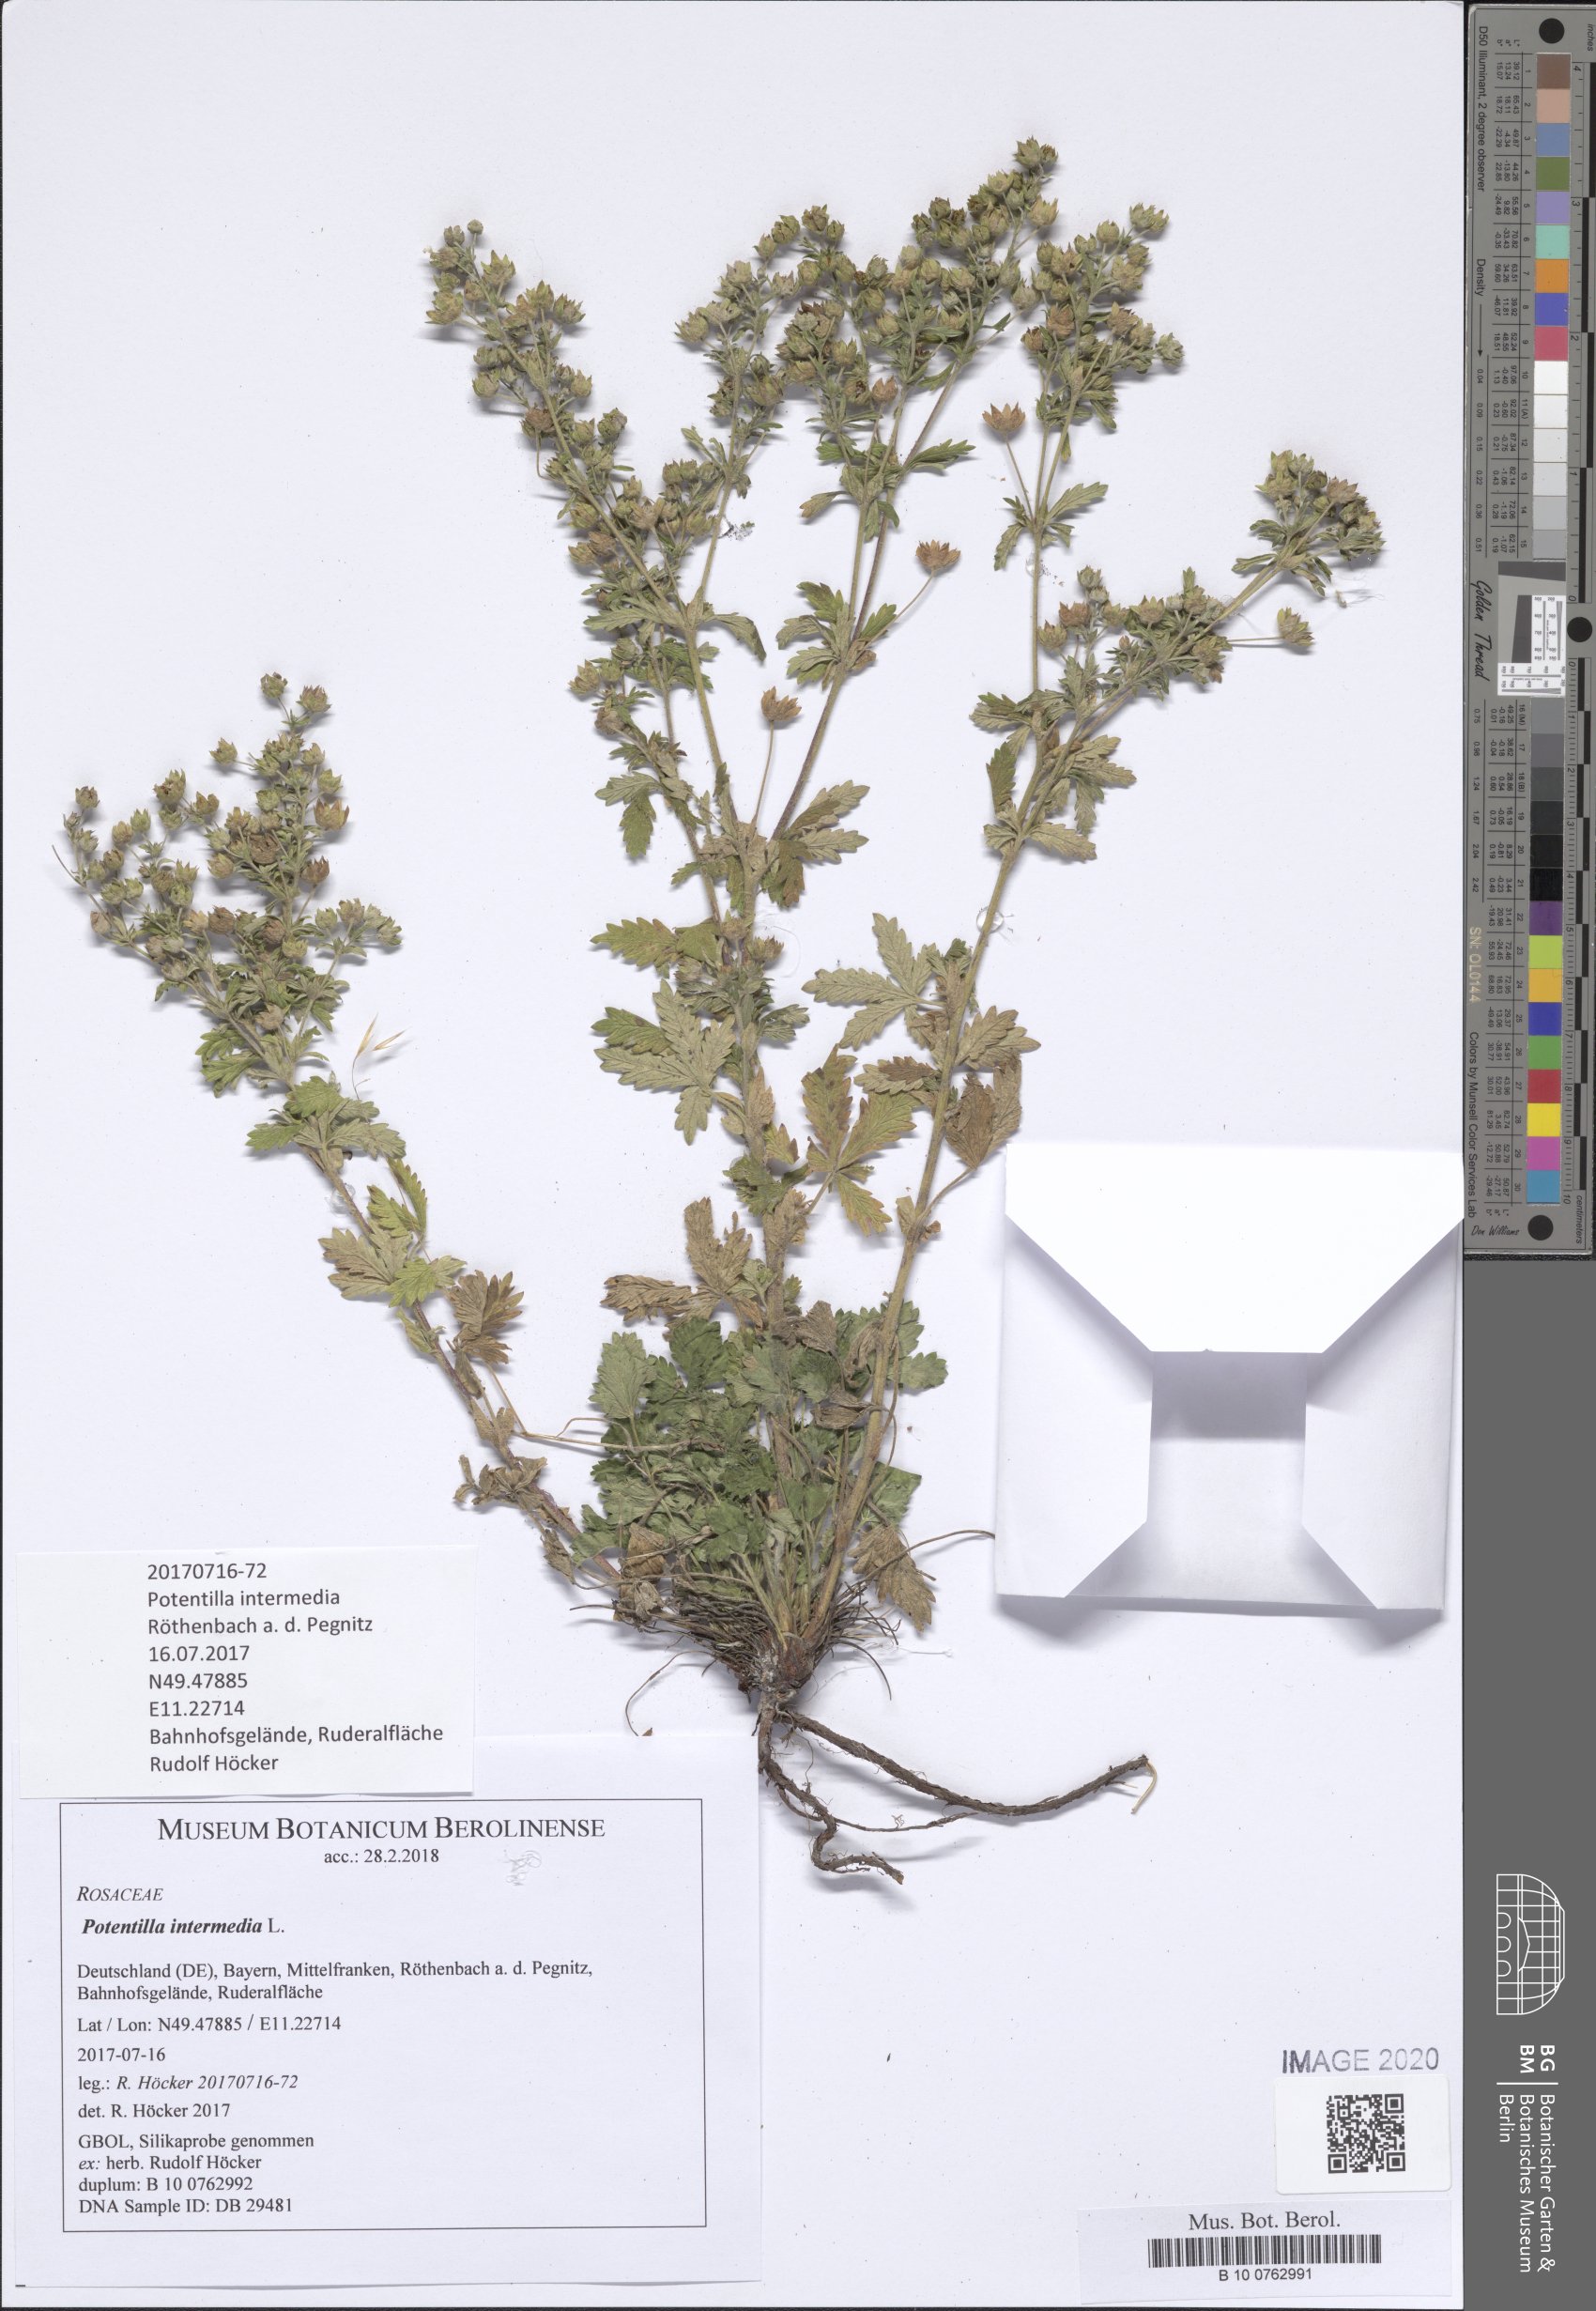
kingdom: Plantae
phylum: Tracheophyta
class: Magnoliopsida
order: Rosales
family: Rosaceae
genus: Potentilla
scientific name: Potentilla intermedia
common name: Downy cinquefoil
